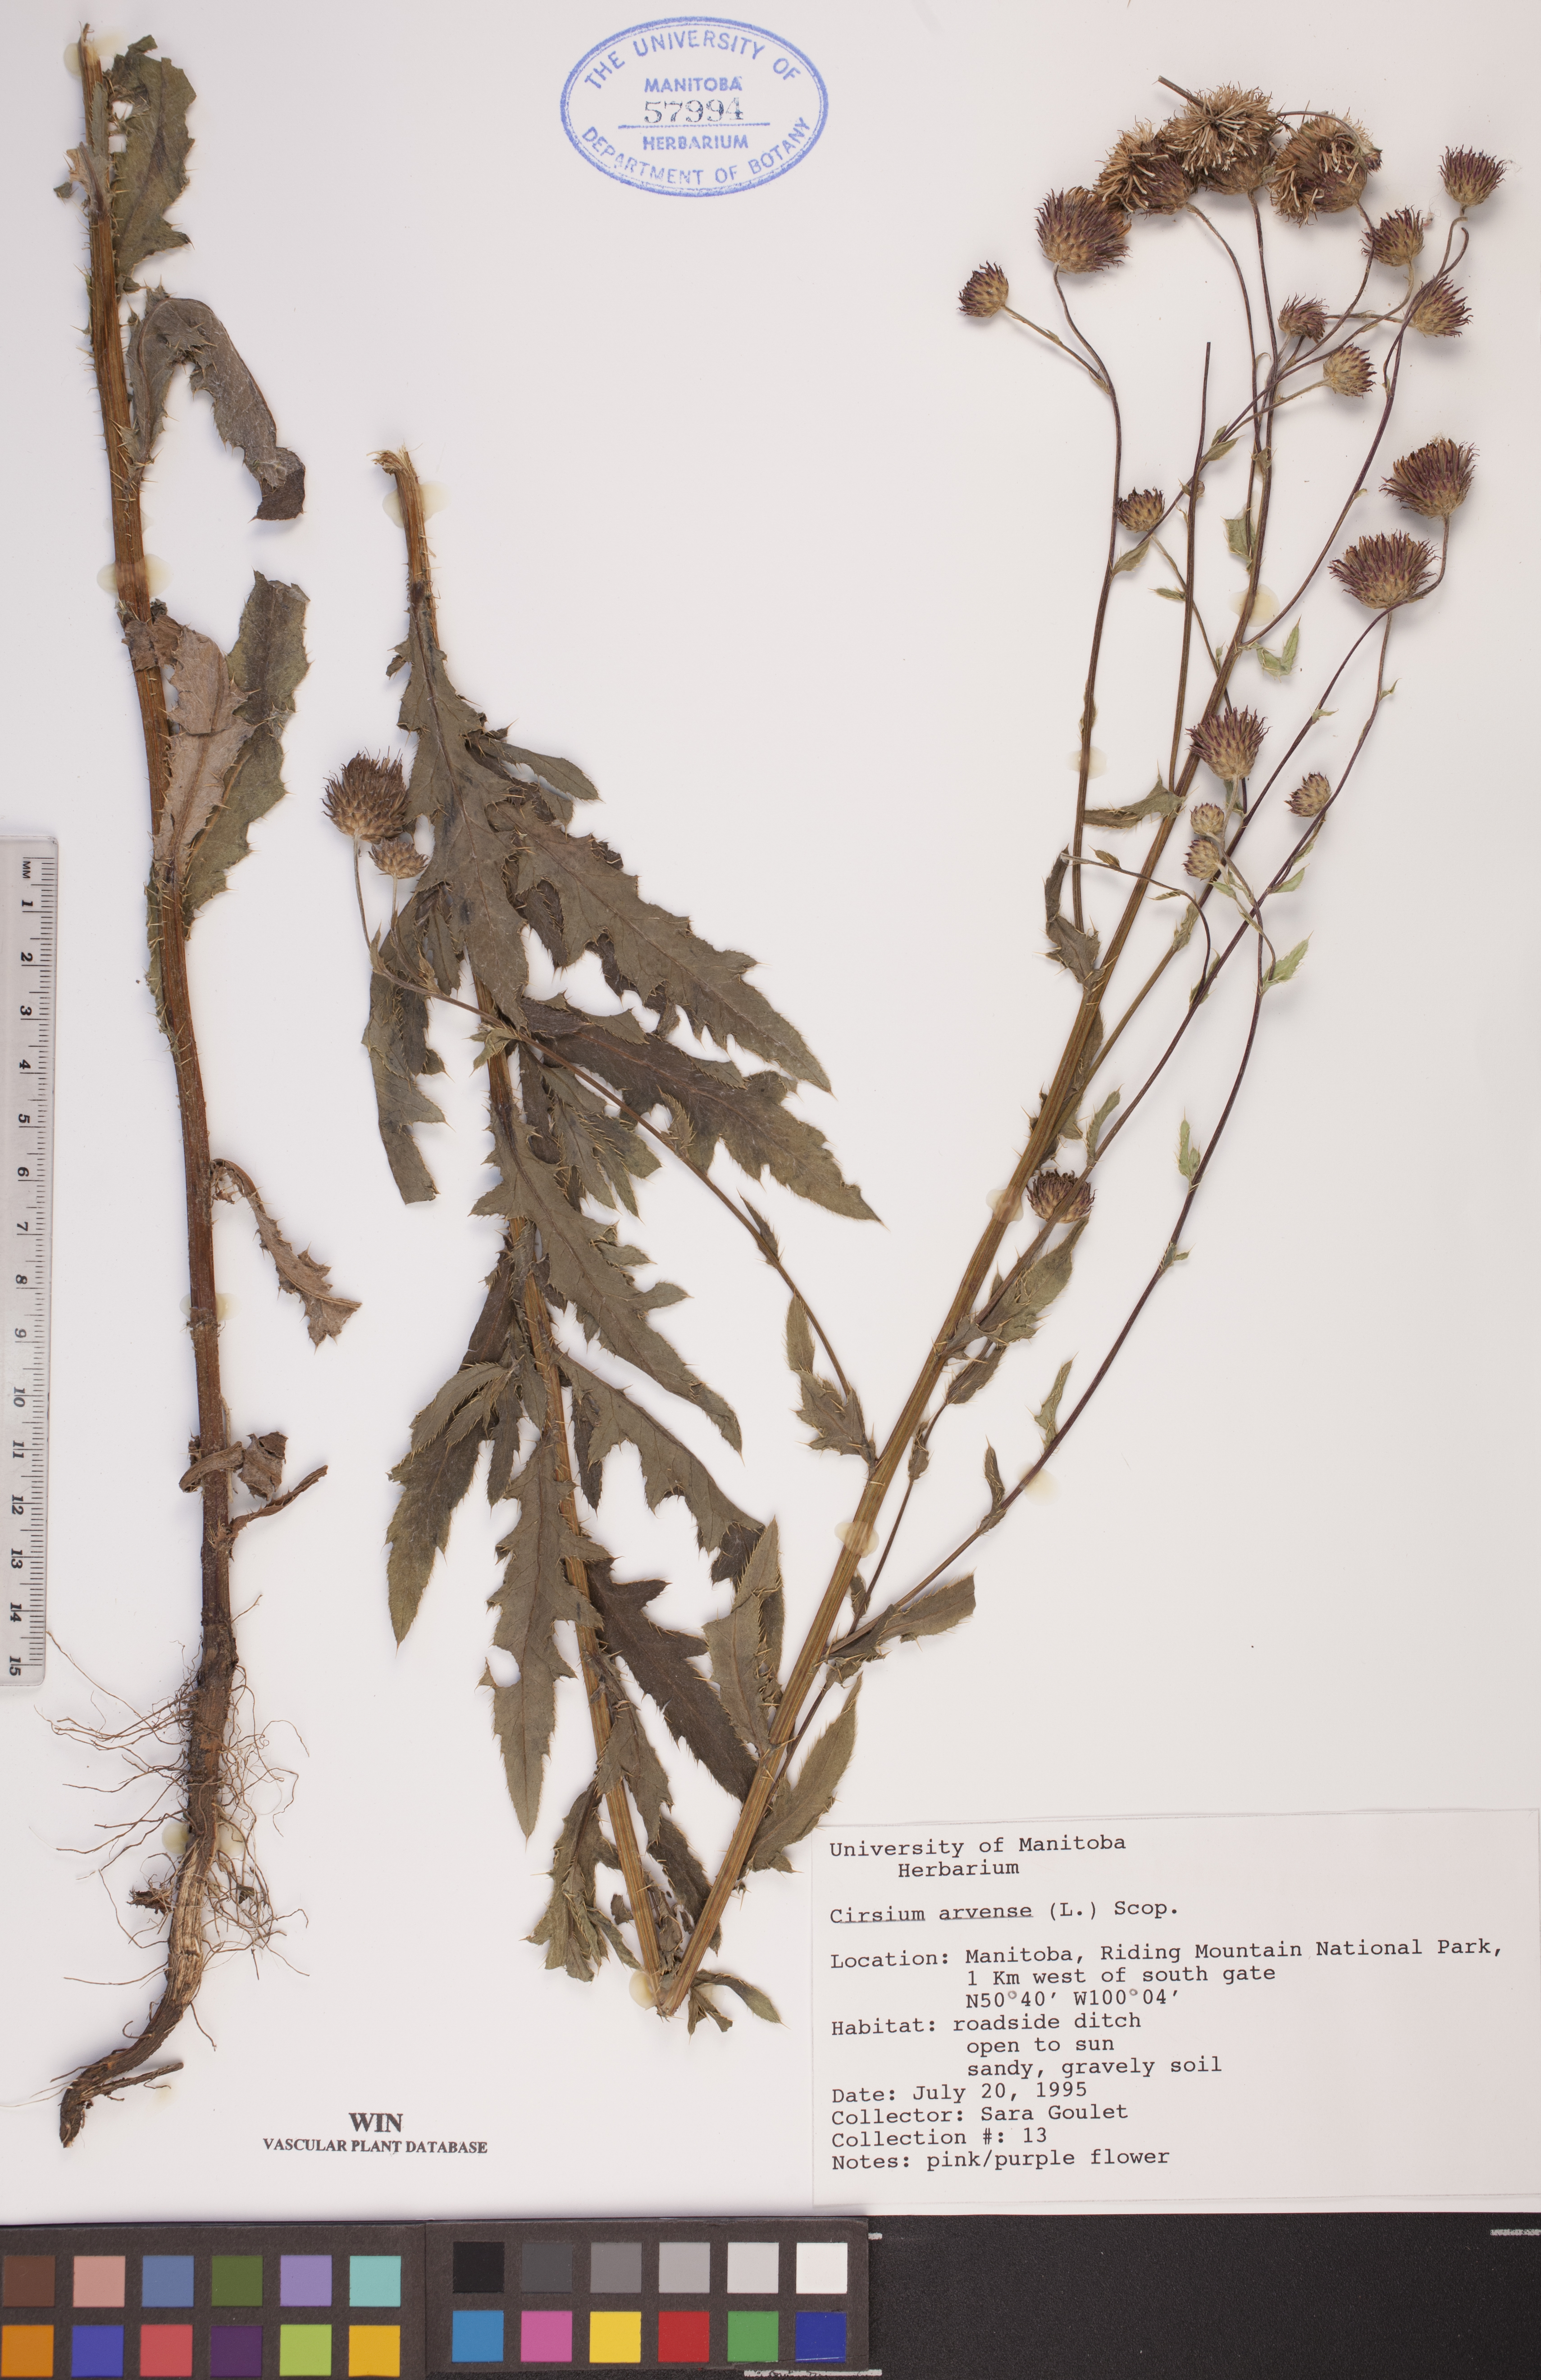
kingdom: Plantae
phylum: Tracheophyta
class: Magnoliopsida
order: Asterales
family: Asteraceae
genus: Cirsium
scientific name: Cirsium arvense
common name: Creeping thistle
